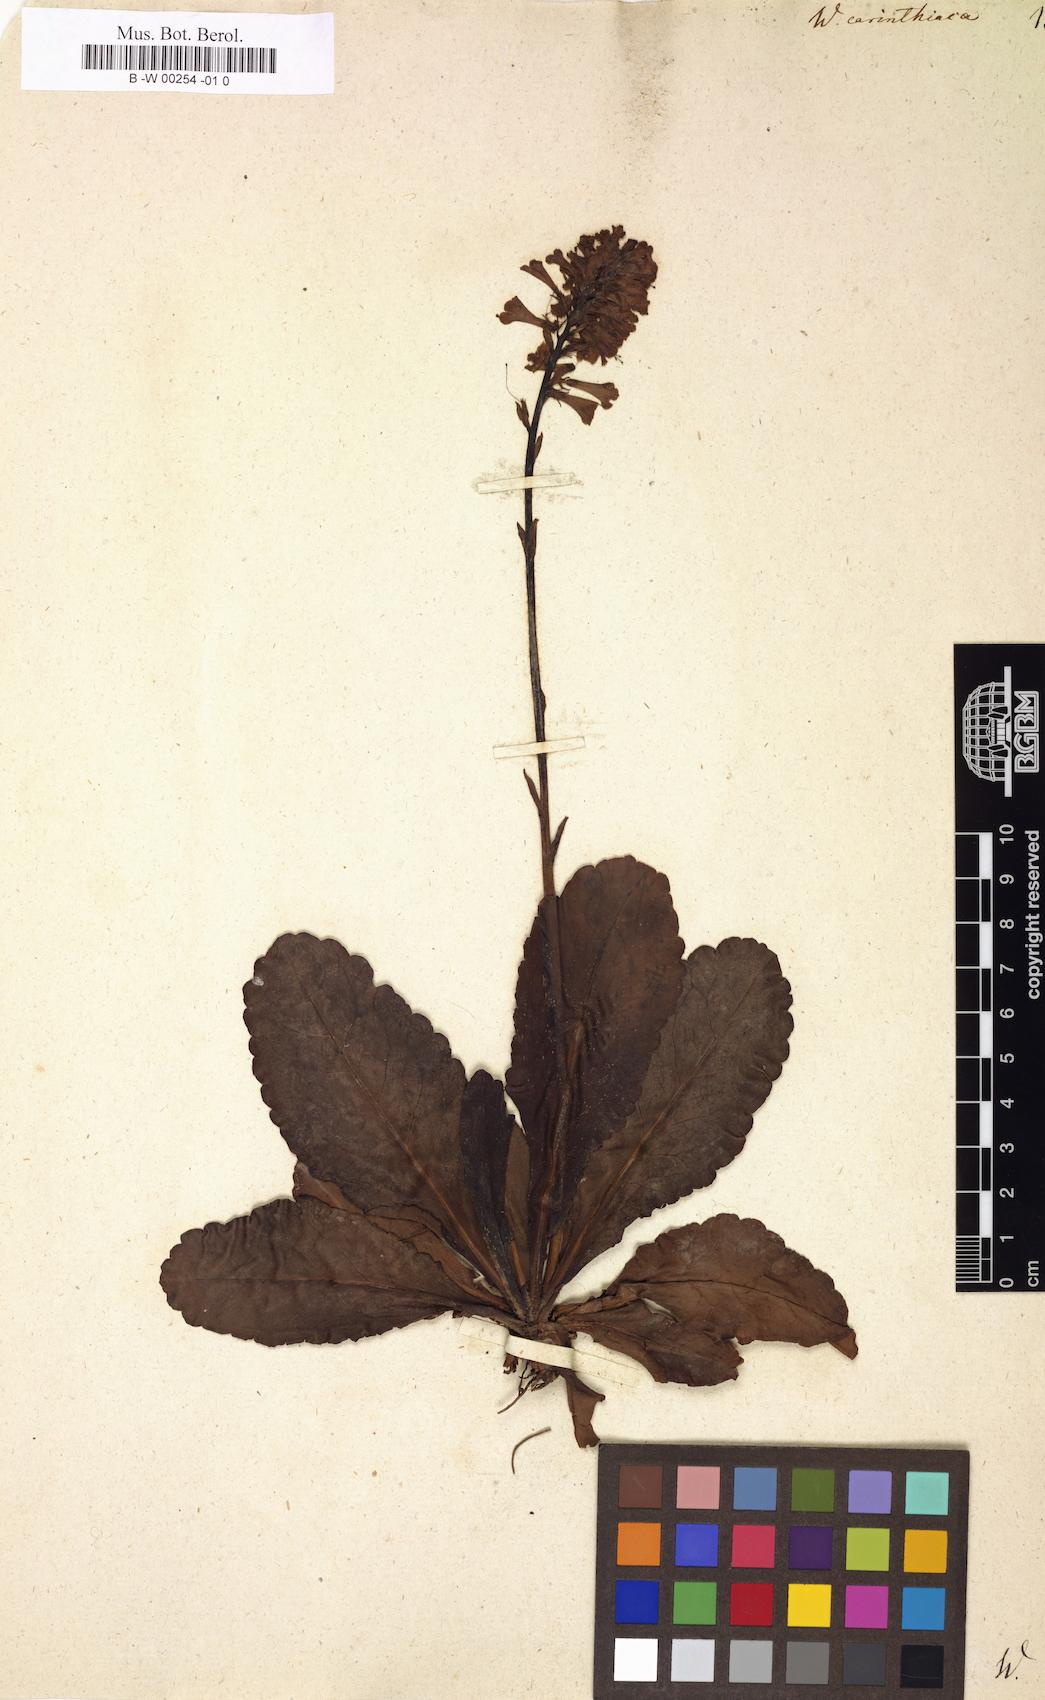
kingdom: Plantae
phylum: Tracheophyta
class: Magnoliopsida
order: Lamiales
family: Plantaginaceae
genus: Wulfenia
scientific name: Wulfenia carinthiaca
